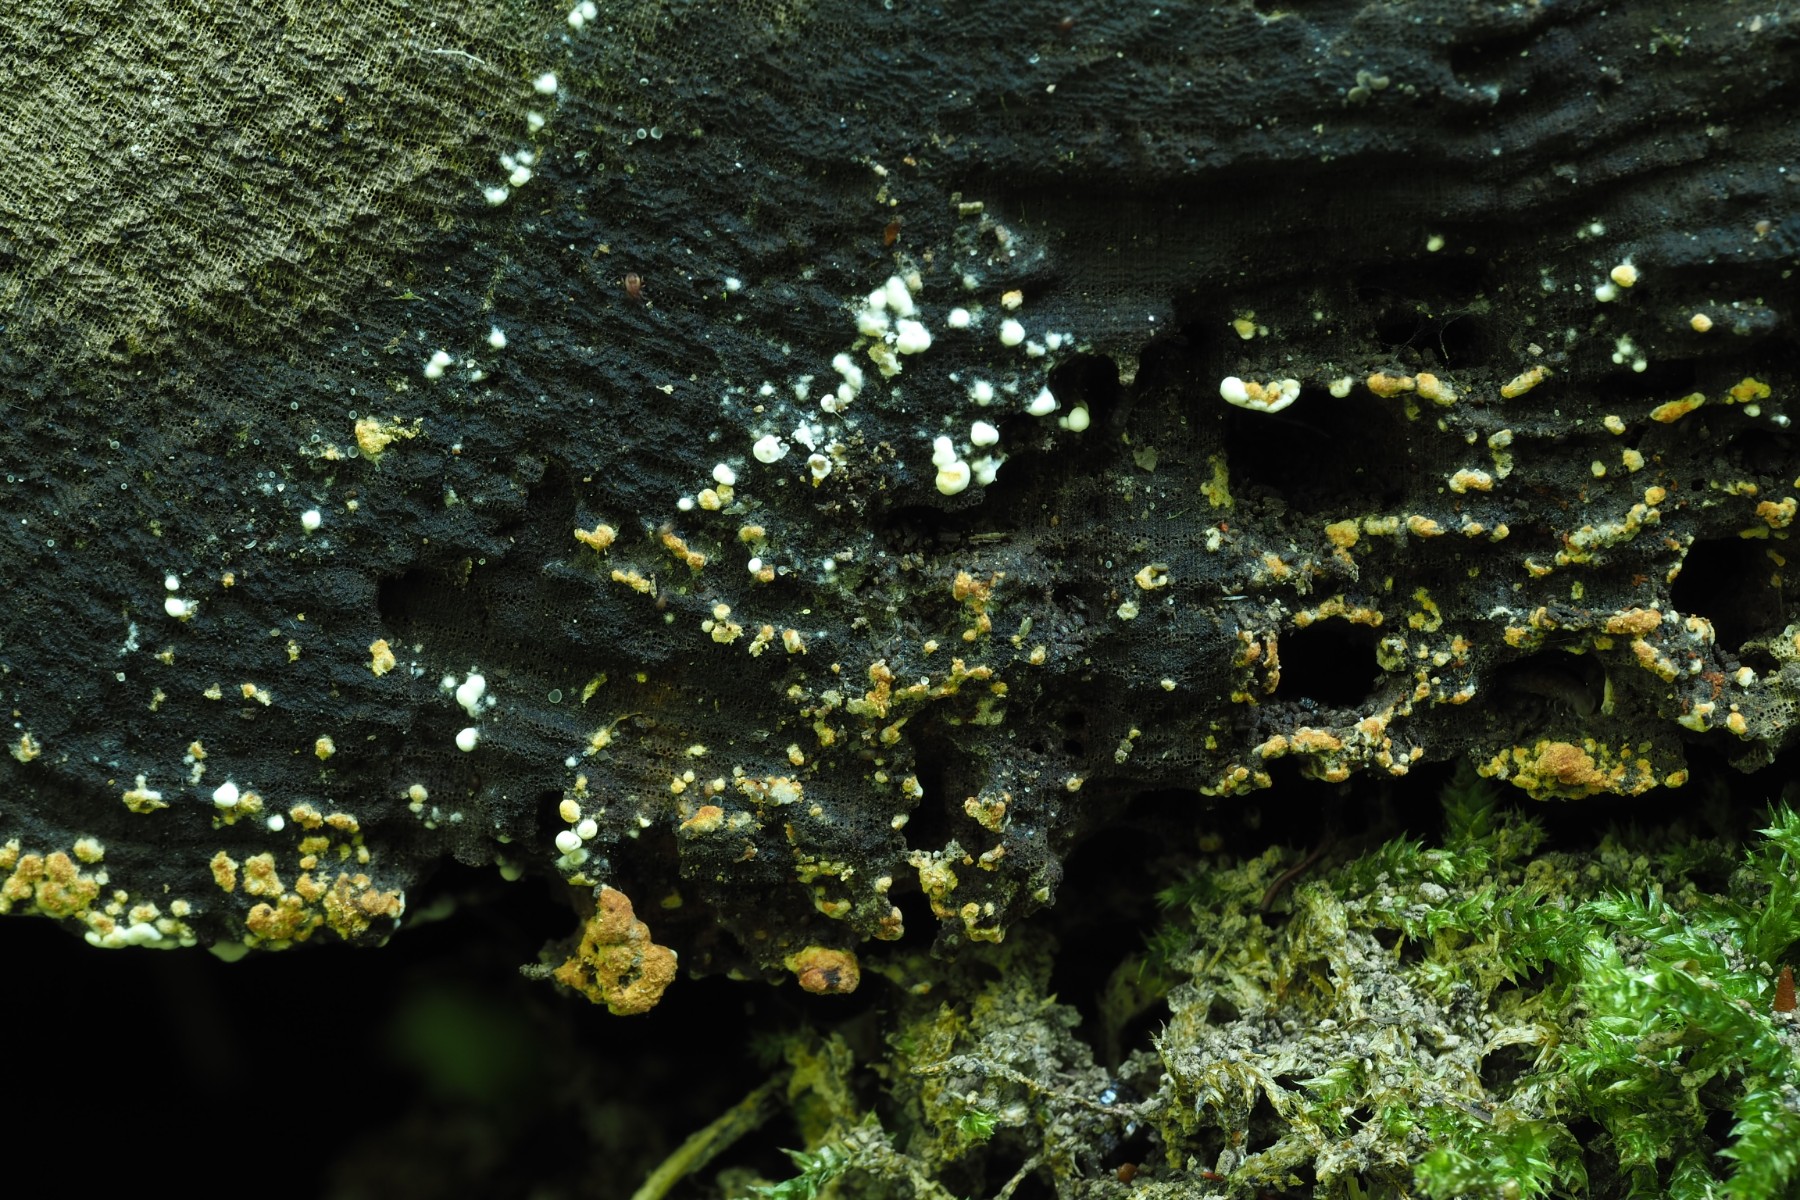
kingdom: Fungi
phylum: Basidiomycota
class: Agaricomycetes
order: Cantharellales
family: Botryobasidiaceae
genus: Botryobasidium
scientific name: Botryobasidium aureum
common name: gylden spindhinde
